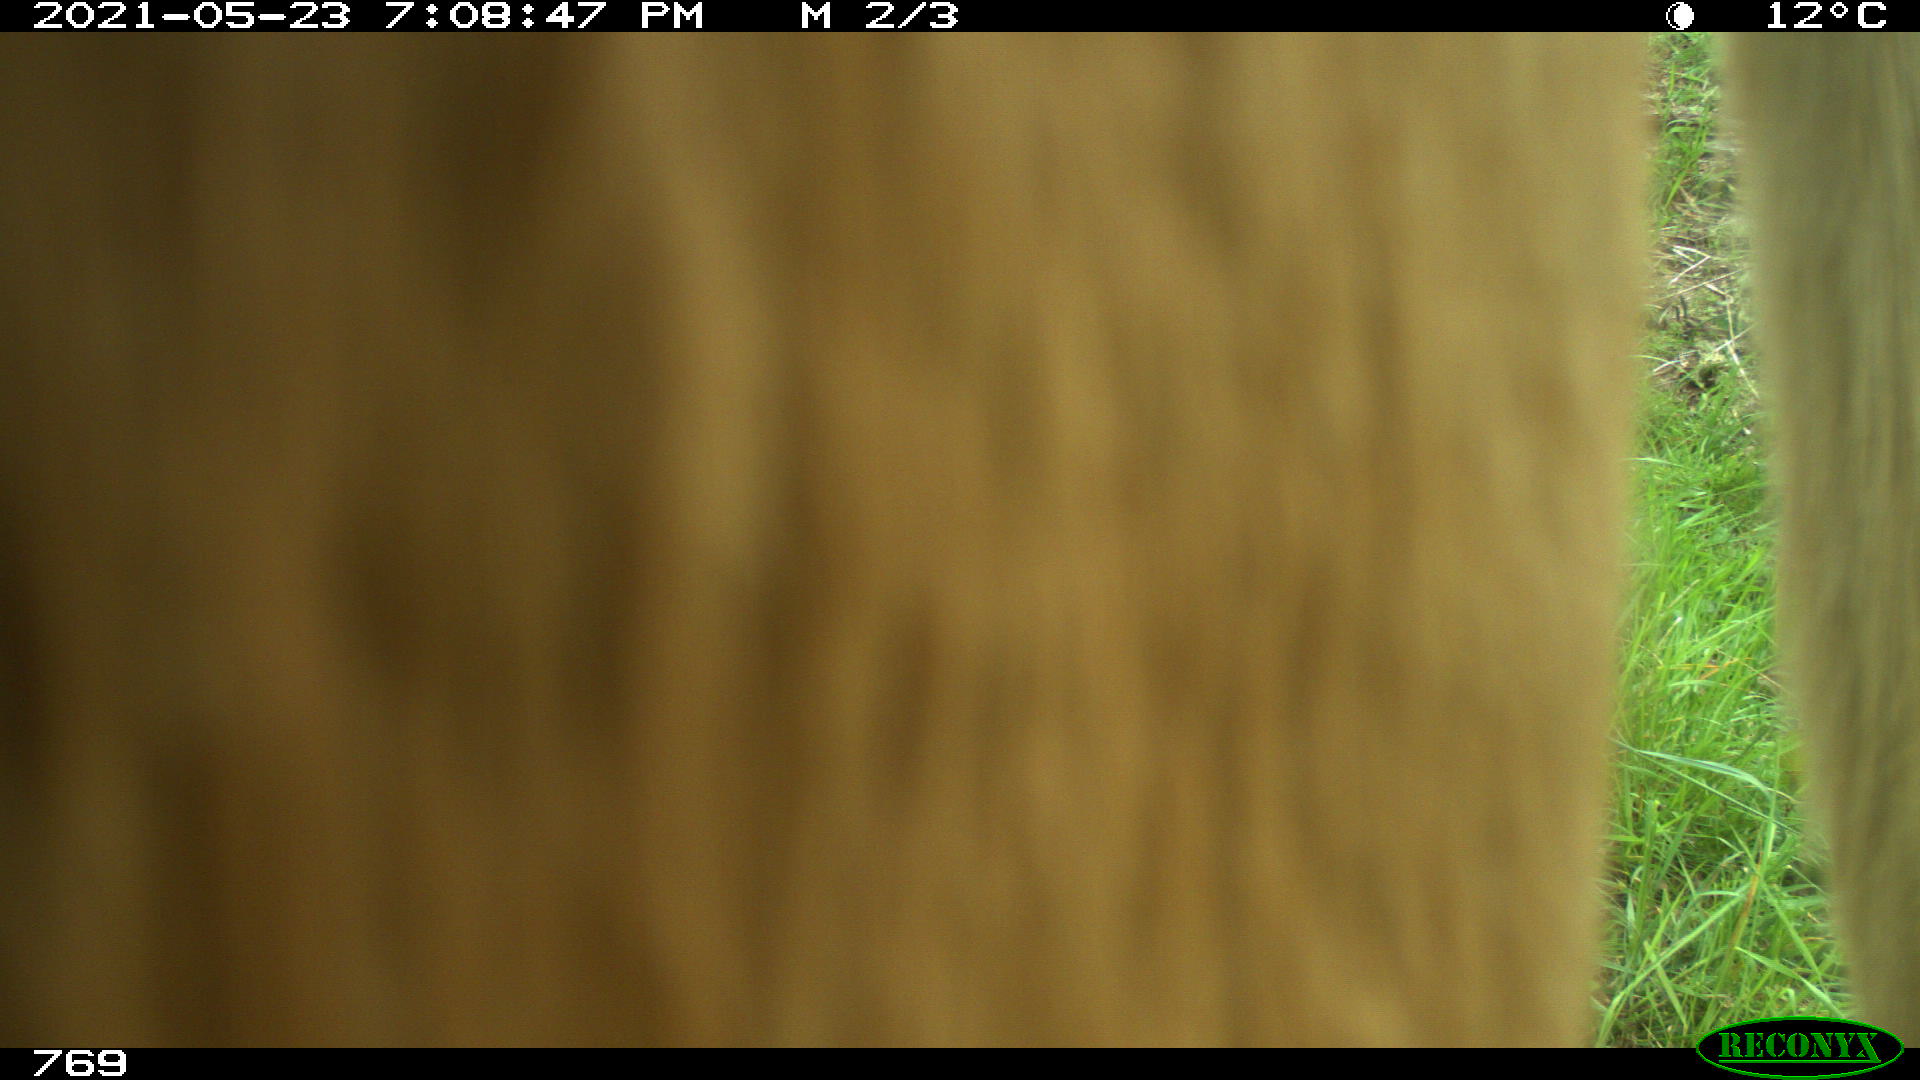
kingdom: Animalia
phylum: Chordata
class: Mammalia
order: Artiodactyla
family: Bovidae
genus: Bos
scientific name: Bos taurus
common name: Domesticated cattle
